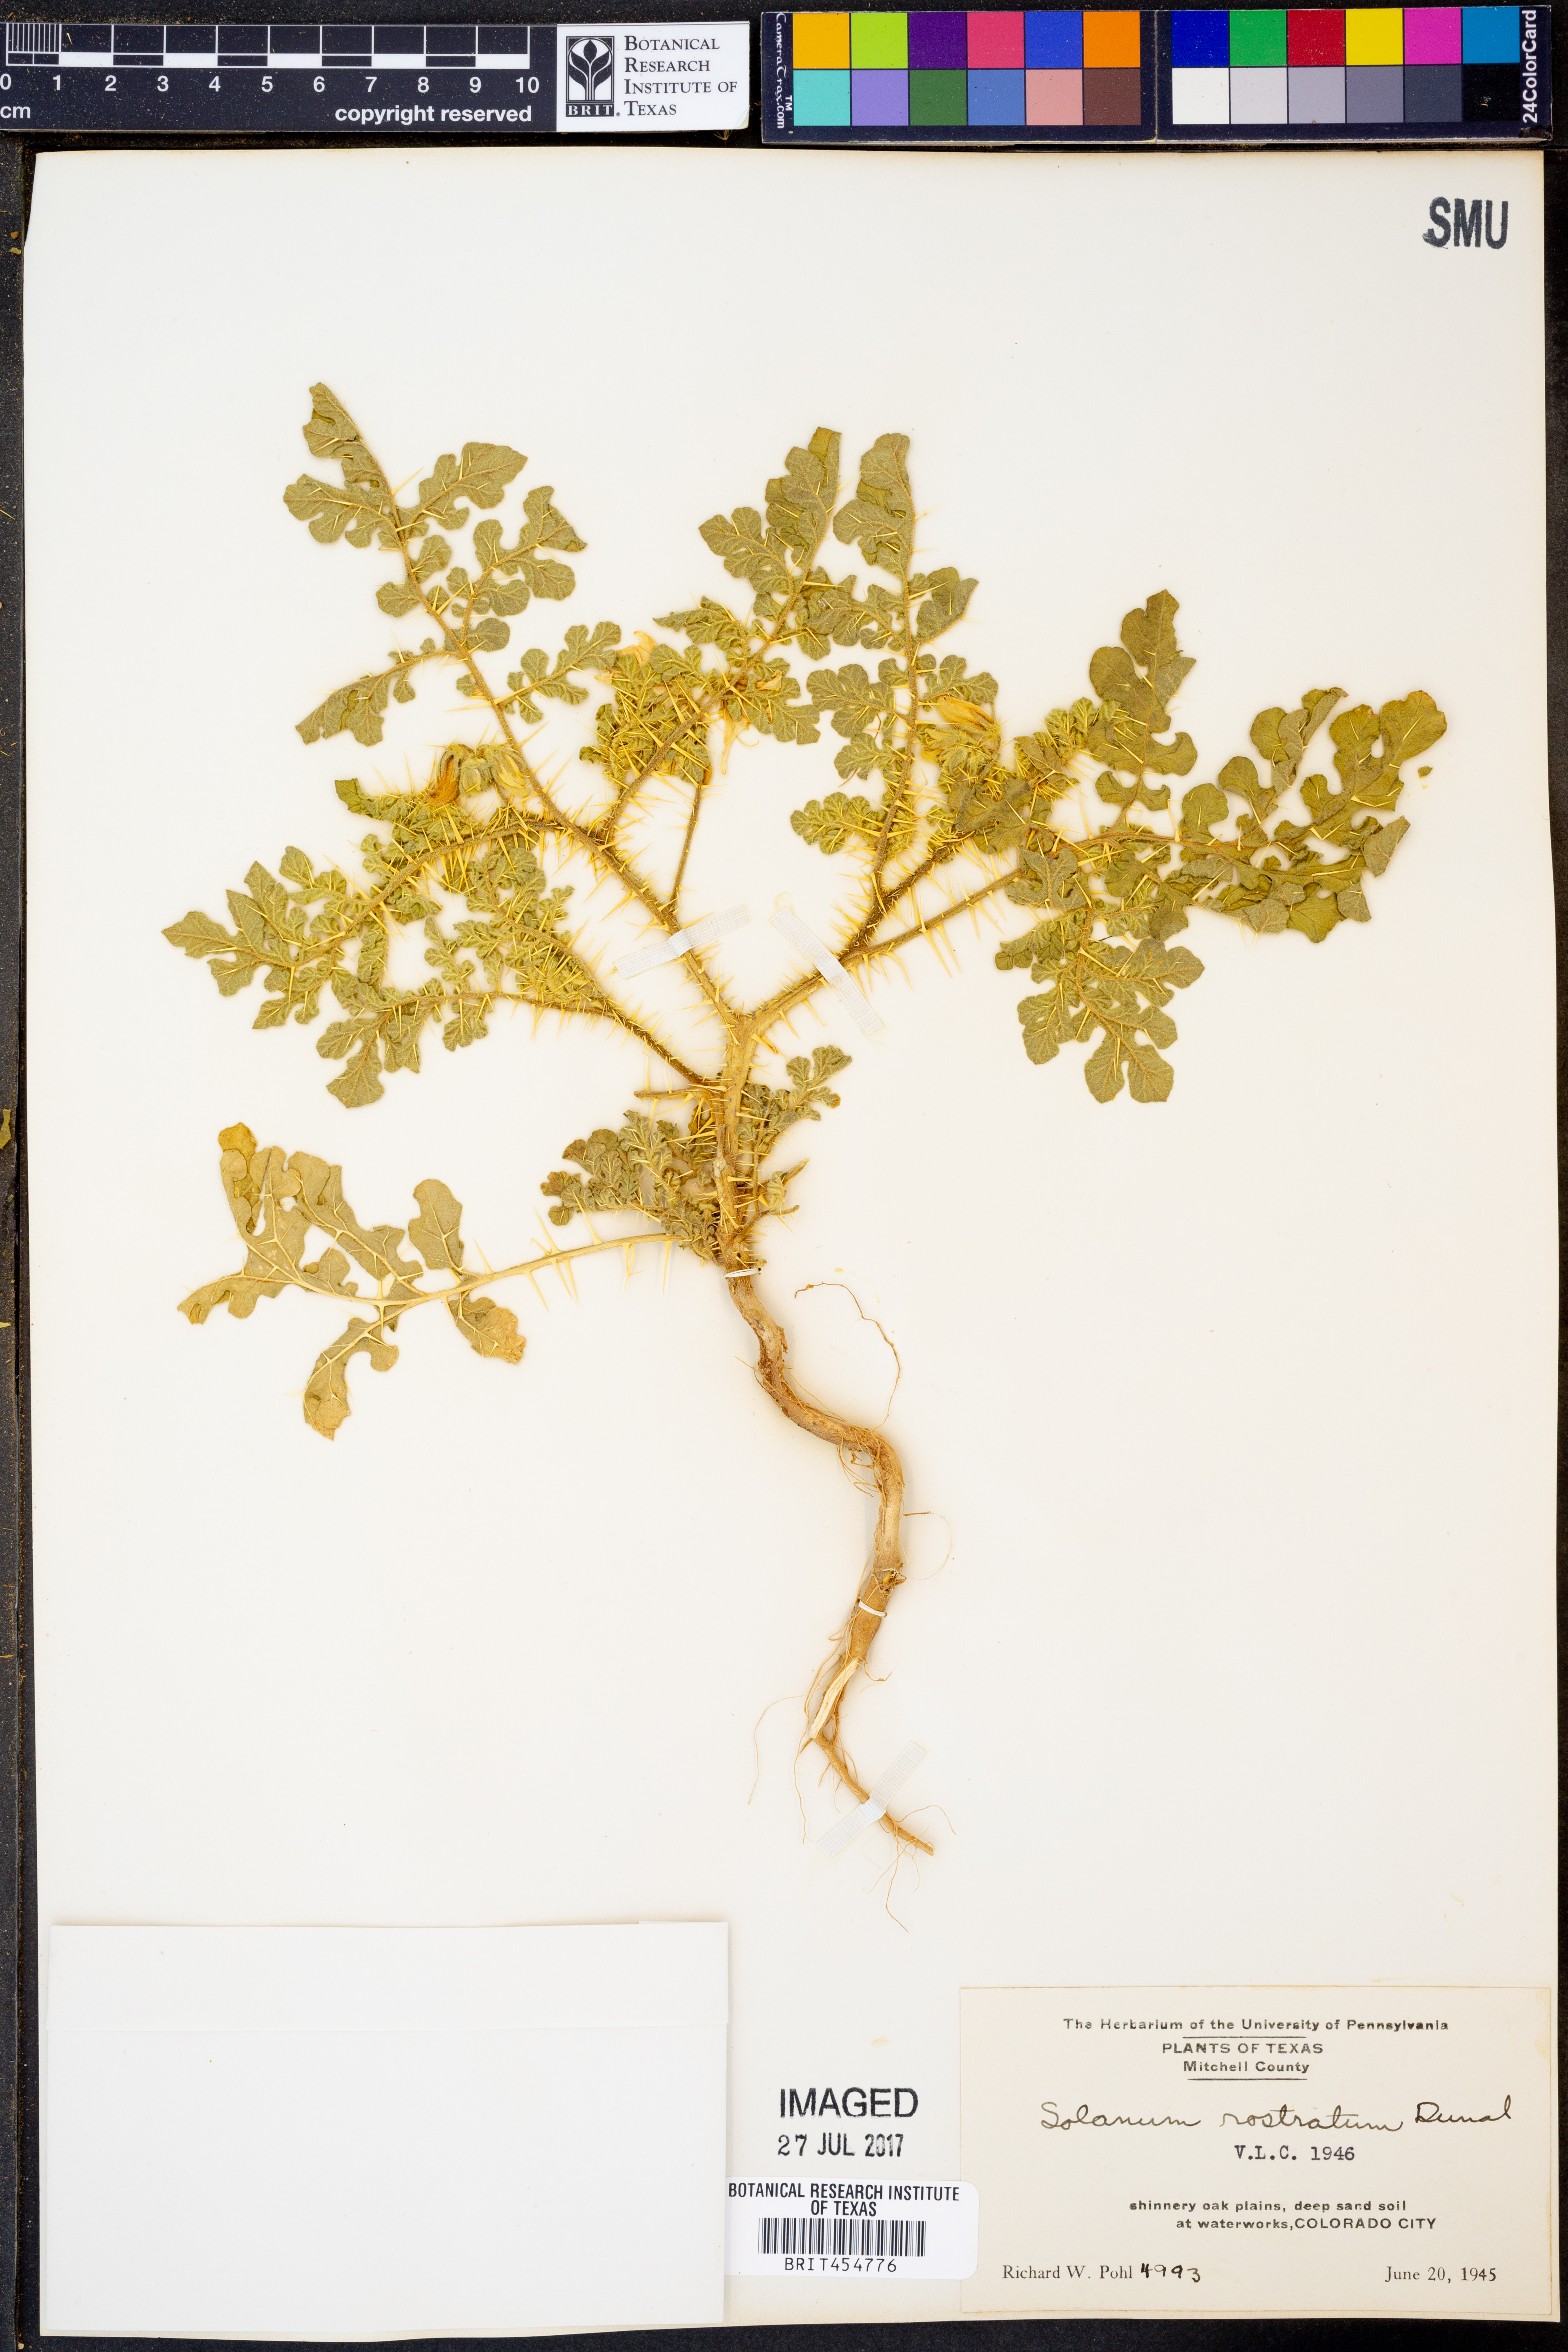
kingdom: Plantae
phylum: Tracheophyta
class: Magnoliopsida
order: Solanales
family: Solanaceae
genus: Solanum
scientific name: Solanum angustifolium
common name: Buffalobur nightshade
